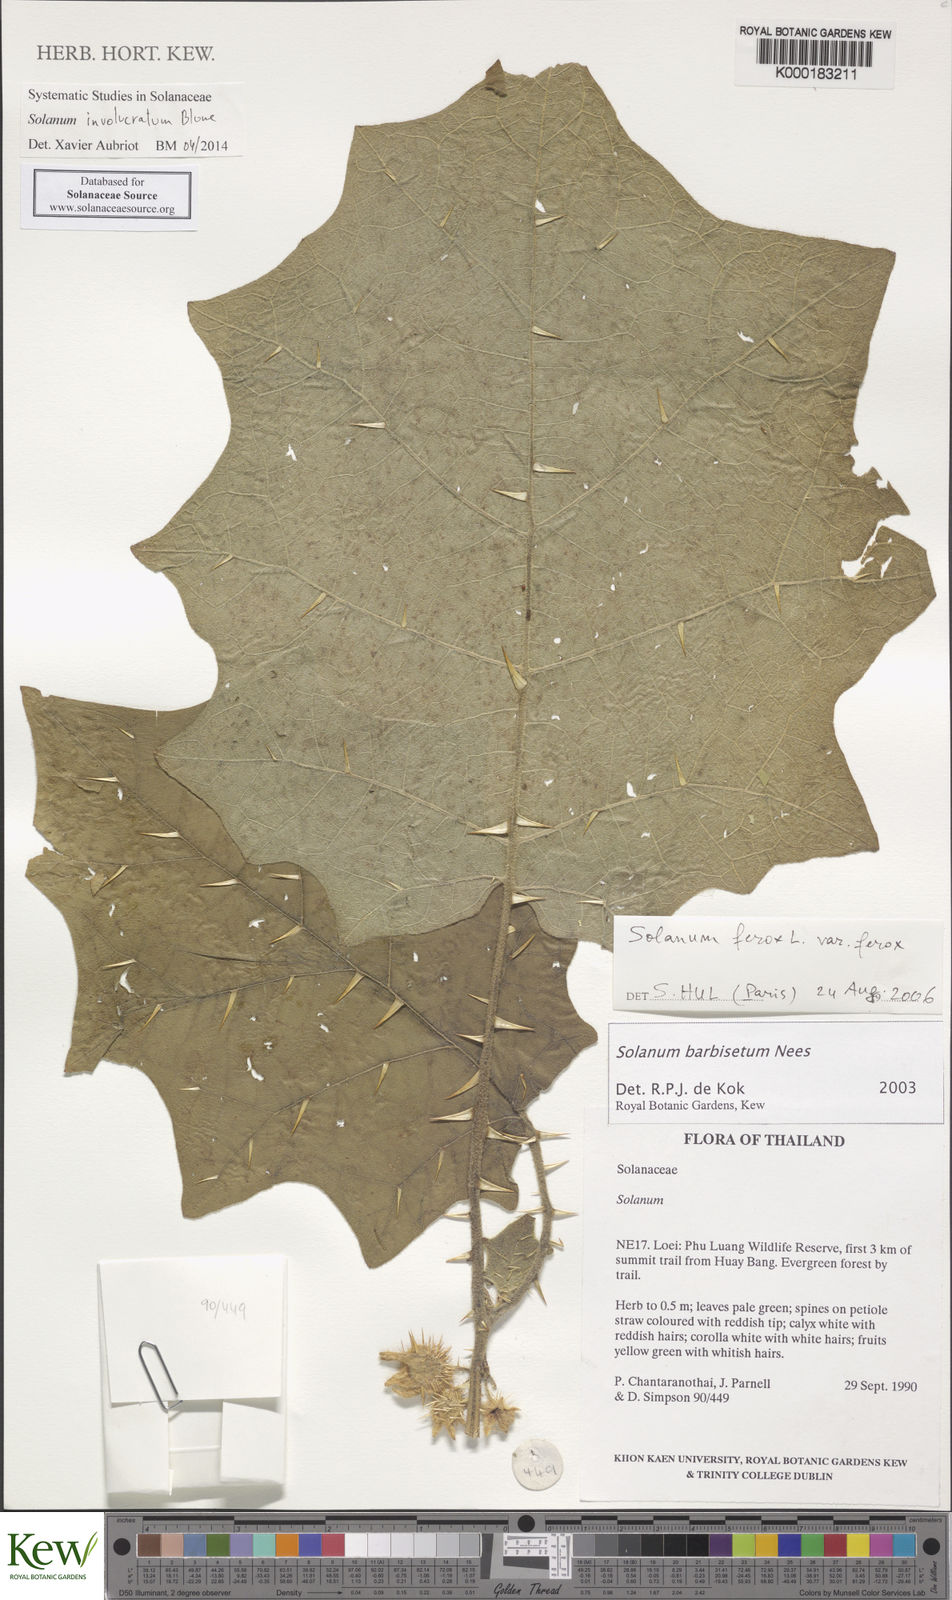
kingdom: Plantae
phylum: Tracheophyta
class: Magnoliopsida
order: Solanales
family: Solanaceae
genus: Solanum
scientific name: Solanum barbisetum
